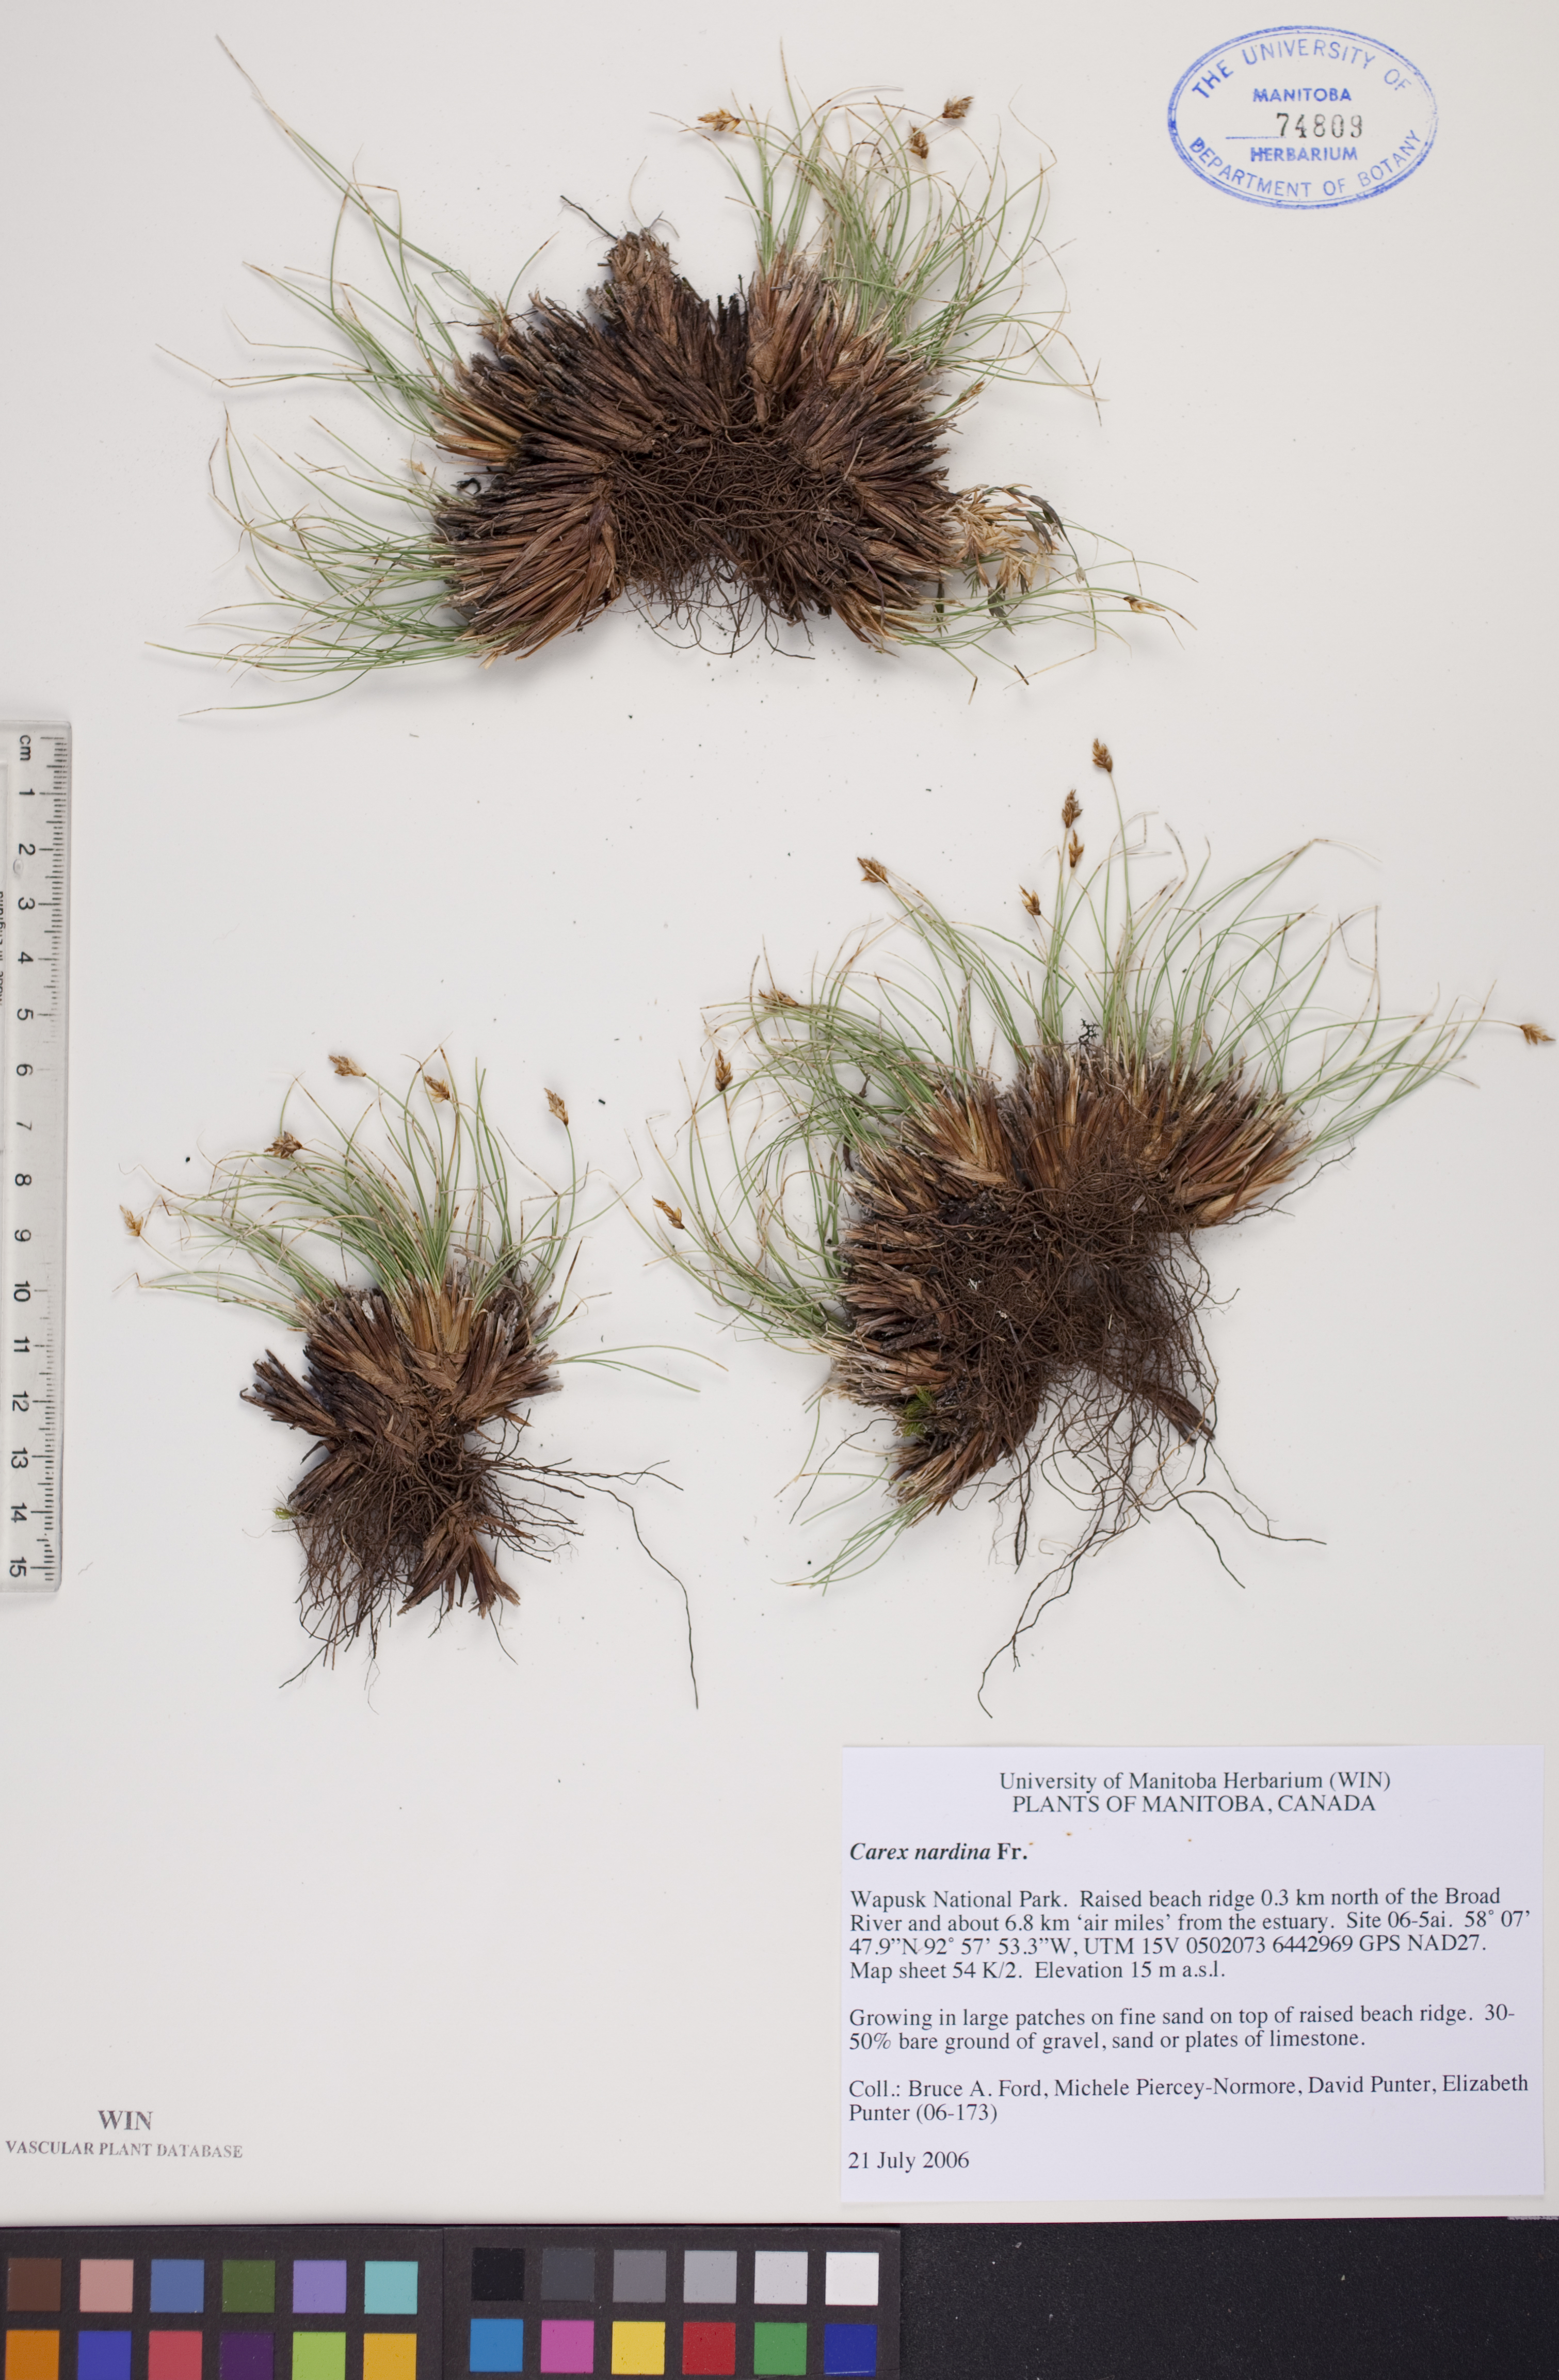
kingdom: Plantae
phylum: Tracheophyta
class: Liliopsida
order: Poales
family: Cyperaceae
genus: Carex
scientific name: Carex nardina
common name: Nard sedge
